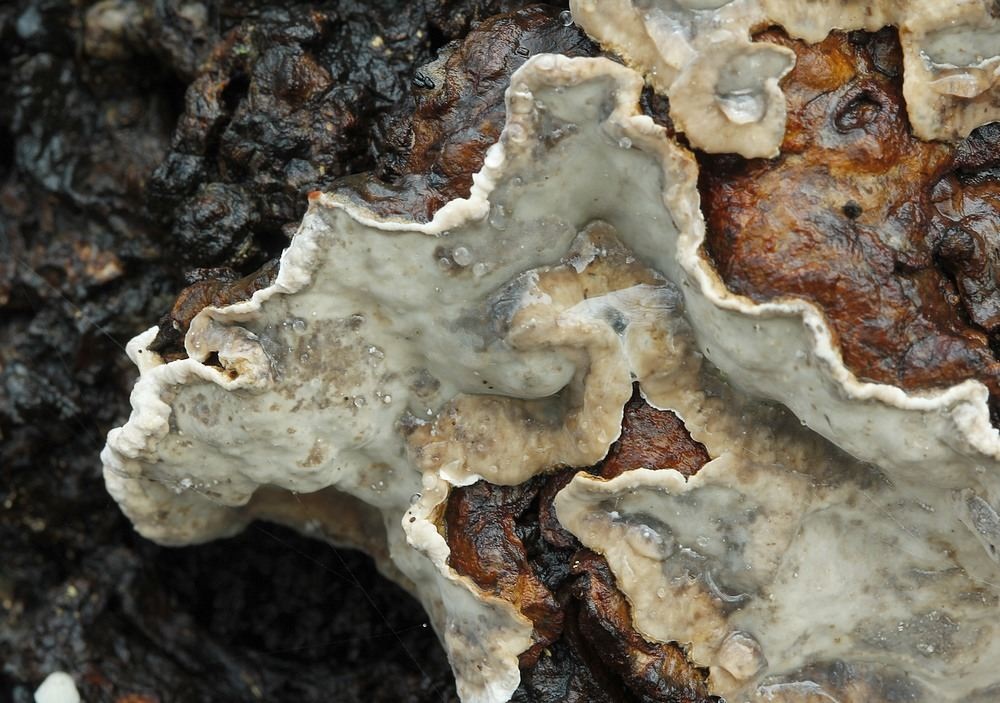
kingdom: Fungi
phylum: Basidiomycota
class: Agaricomycetes
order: Russulales
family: Stereaceae
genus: Stereum
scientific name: Stereum rugosum
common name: rynket lædersvamp
